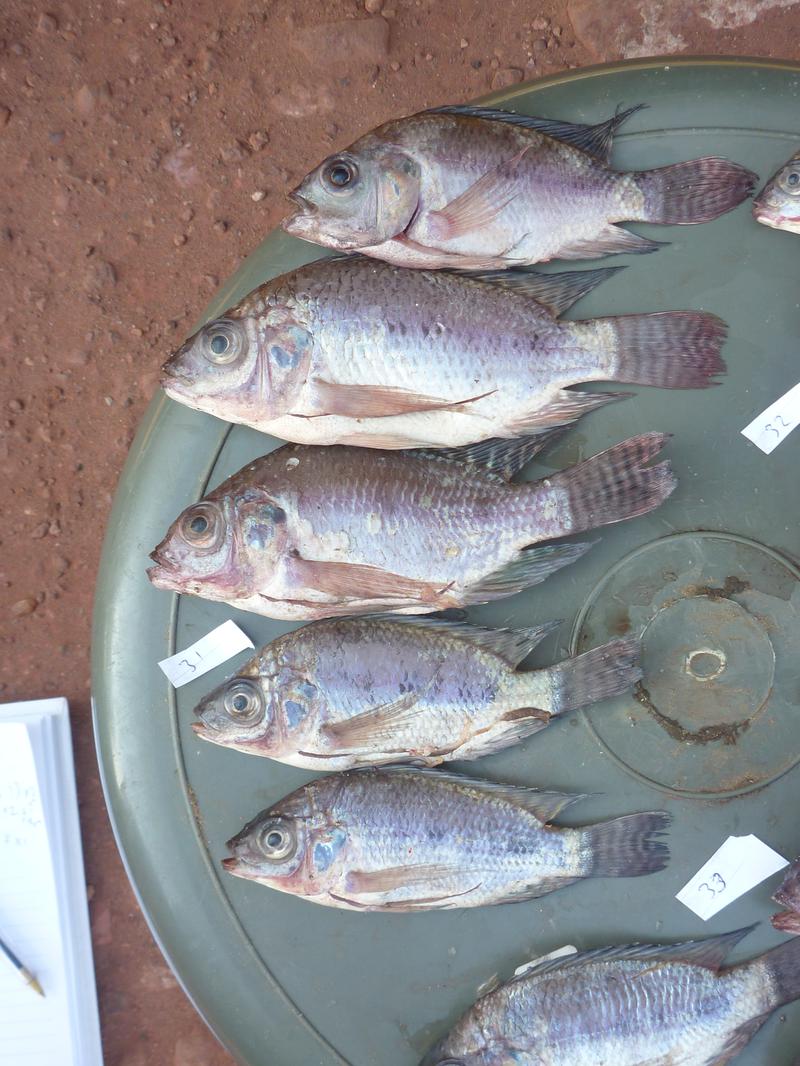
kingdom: Animalia
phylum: Chordata
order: Perciformes
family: Cichlidae
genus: Oreochromis
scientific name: Oreochromis niloticus
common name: Nile tilapia
